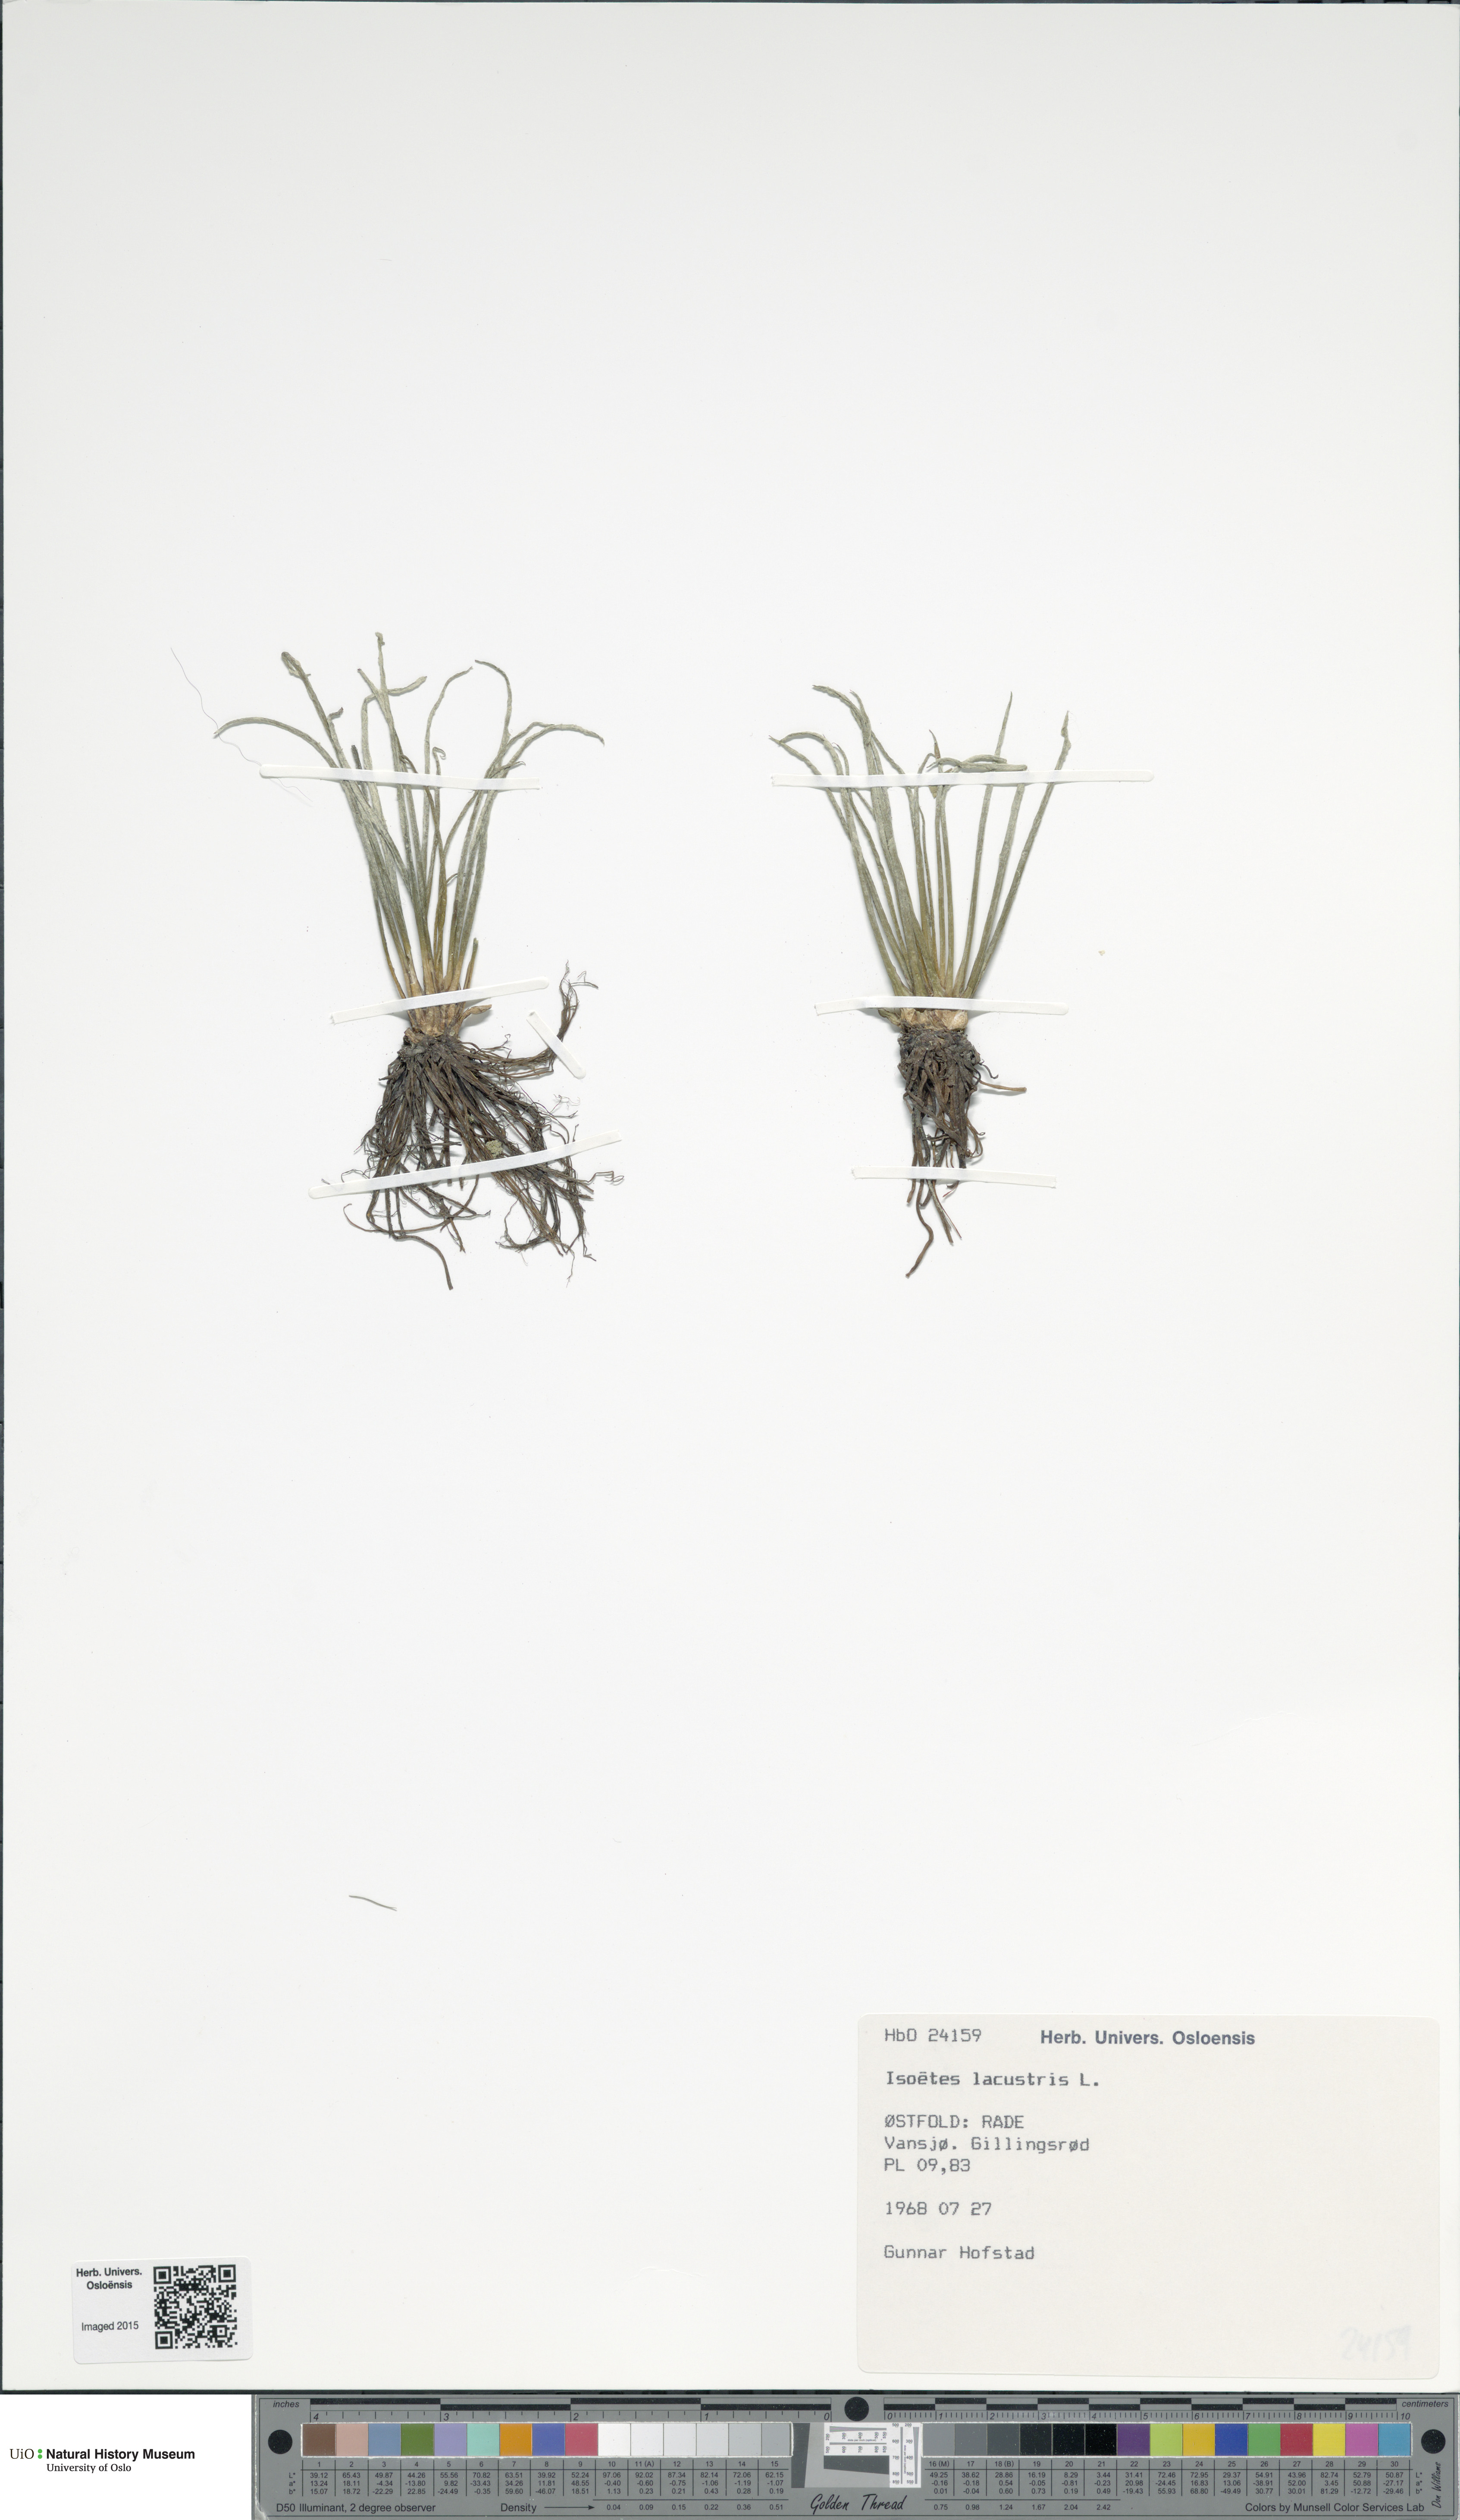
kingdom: Plantae
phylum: Tracheophyta
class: Lycopodiopsida
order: Isoetales
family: Isoetaceae
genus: Isoetes
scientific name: Isoetes lacustris
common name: Common quillwort
